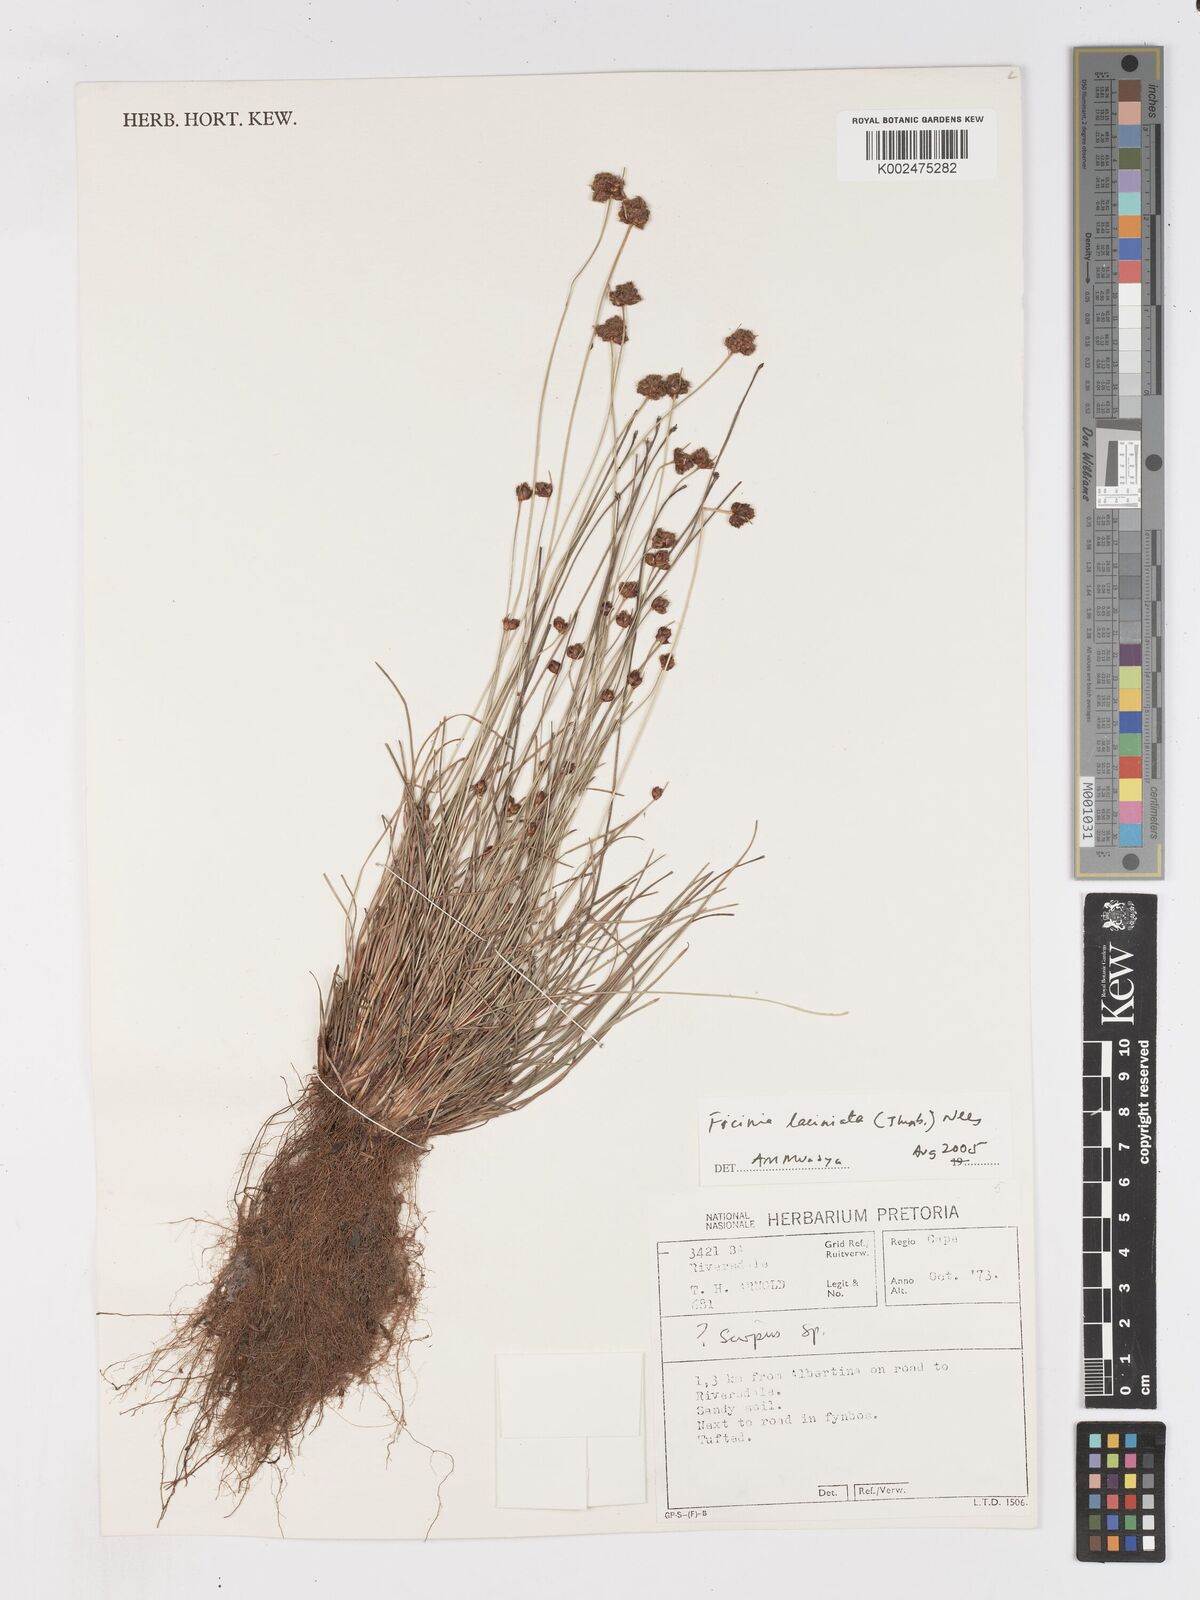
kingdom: Plantae
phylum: Tracheophyta
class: Liliopsida
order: Poales
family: Cyperaceae
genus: Ficinia
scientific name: Ficinia laciniata
